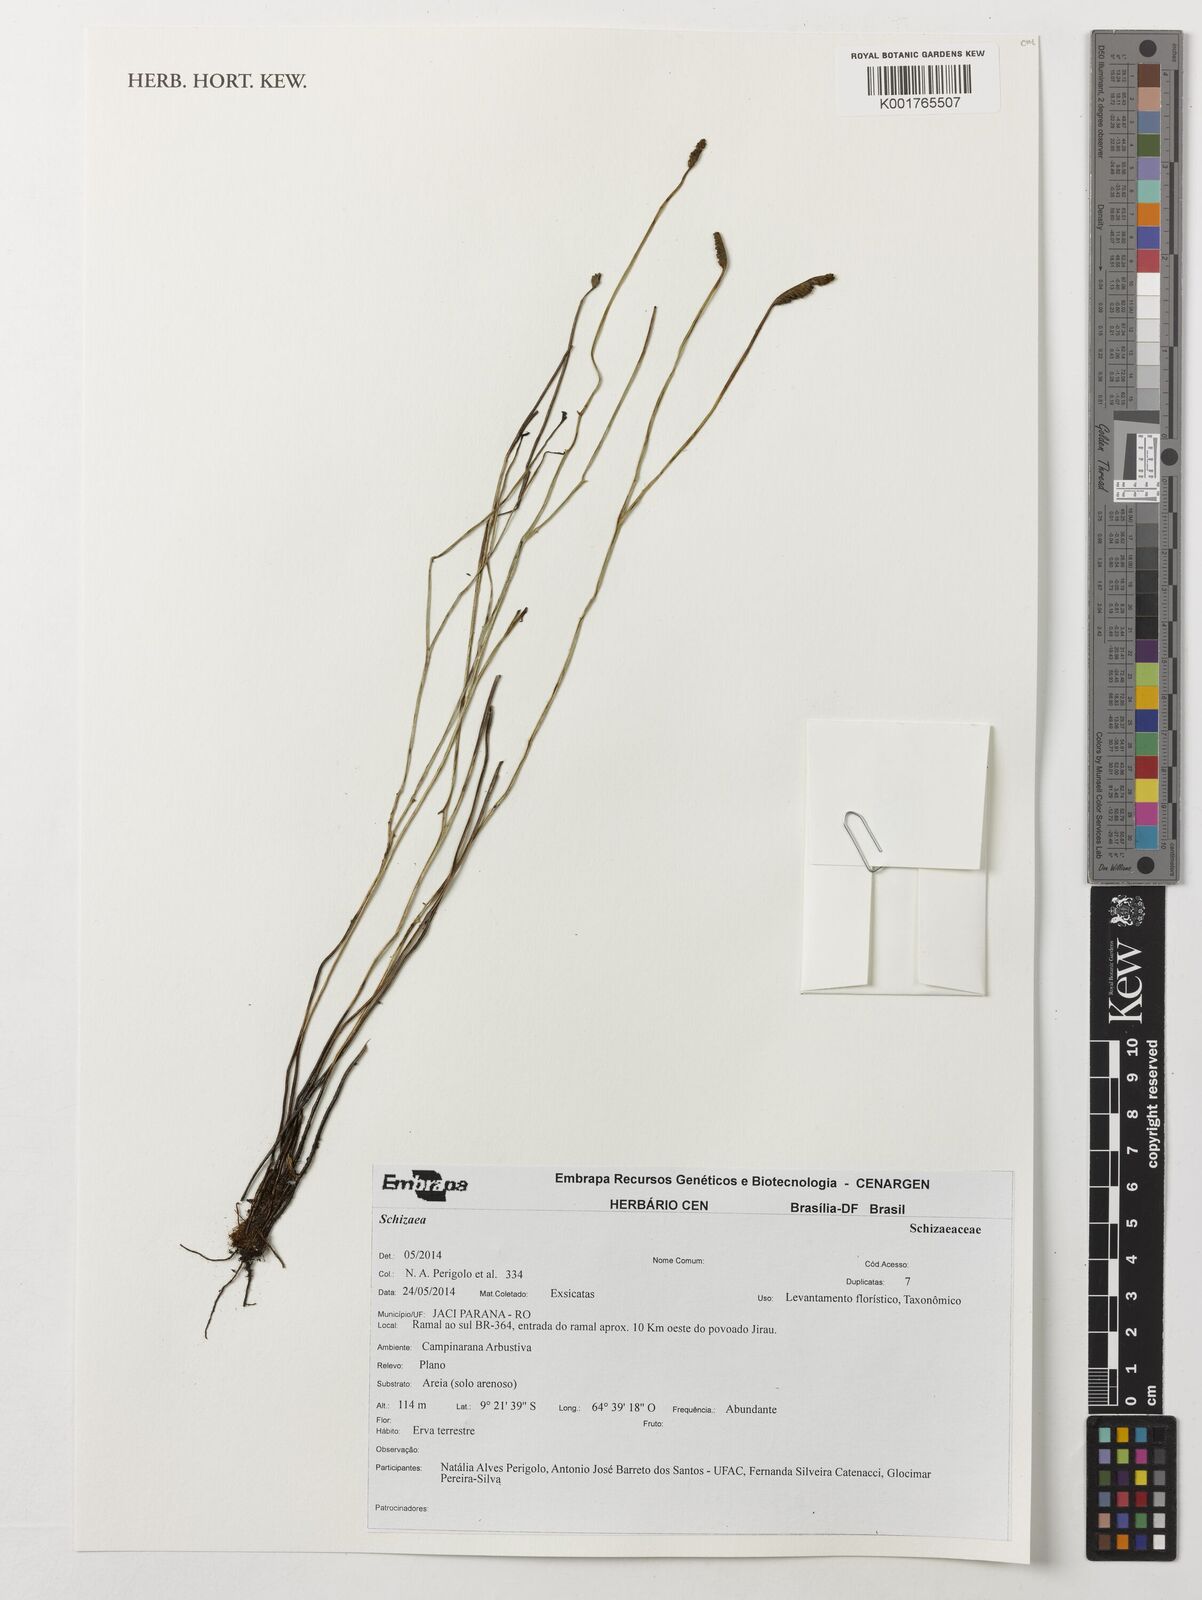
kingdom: Plantae
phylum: Tracheophyta
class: Polypodiopsida
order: Schizaeales
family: Schizaeaceae
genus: Schizaea
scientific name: Schizaea
